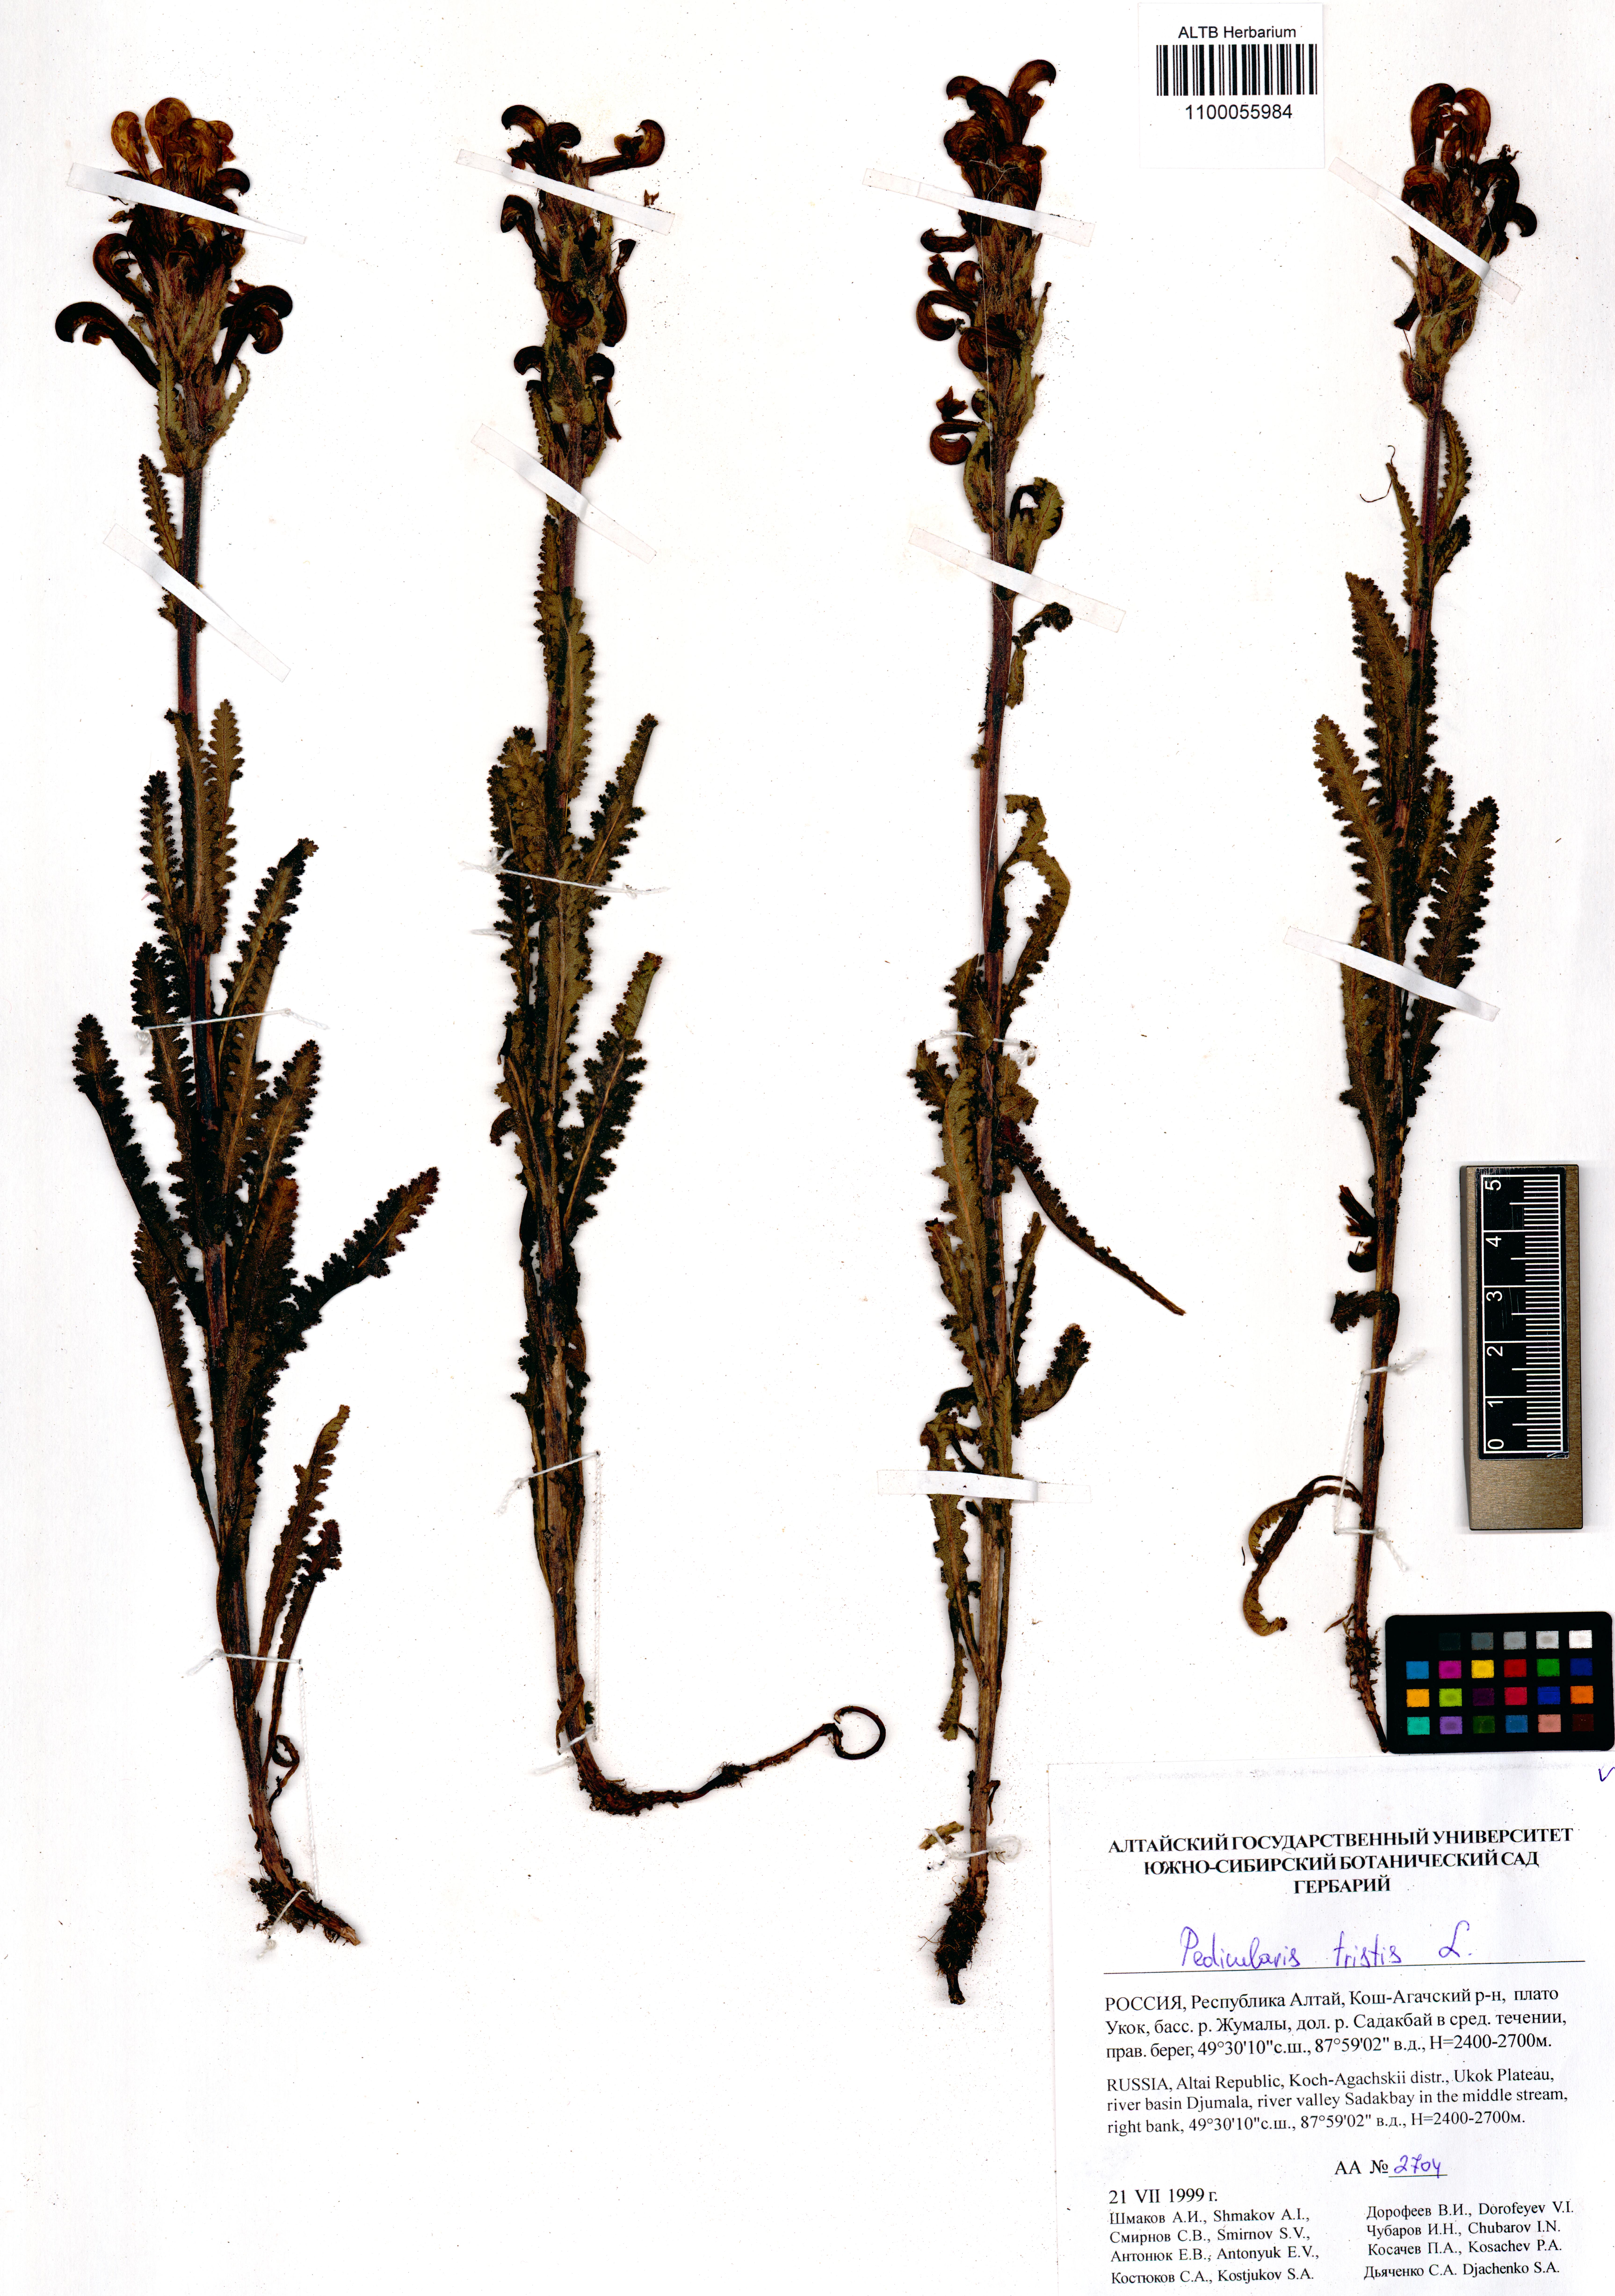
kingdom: Plantae
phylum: Tracheophyta
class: Magnoliopsida
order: Lamiales
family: Orobanchaceae
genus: Pedicularis
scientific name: Pedicularis tristis
